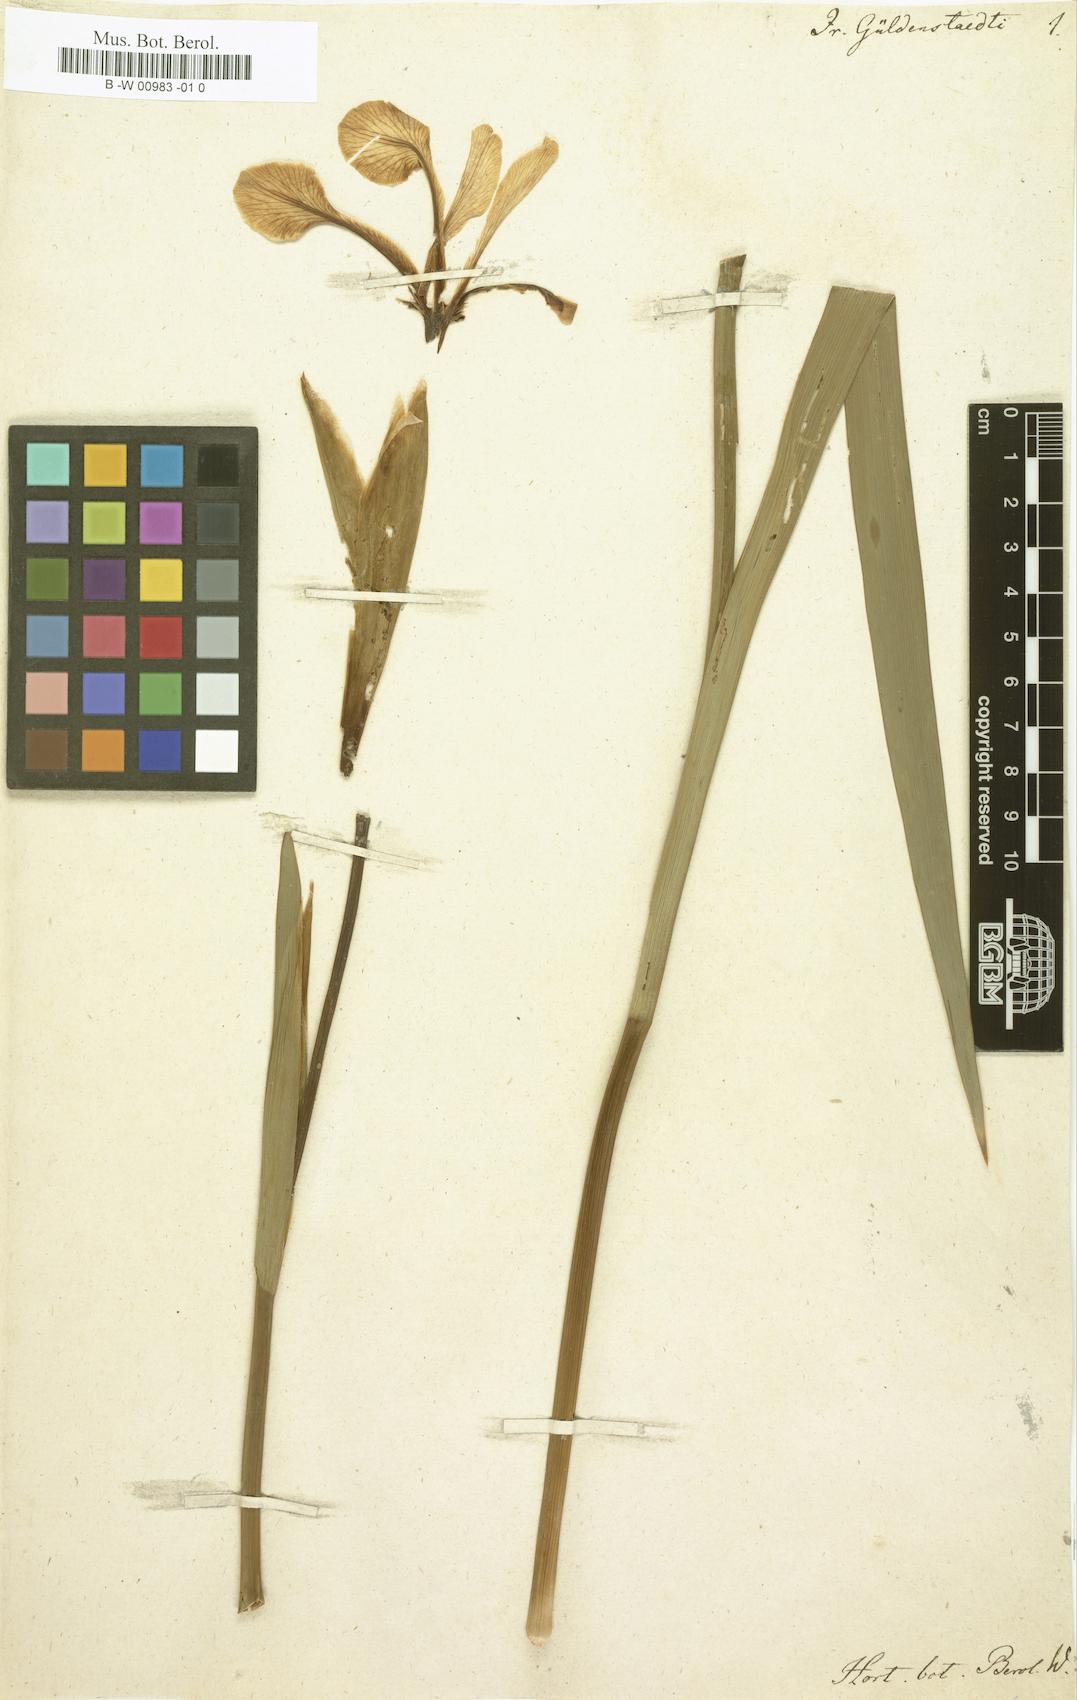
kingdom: Plantae
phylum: Tracheophyta
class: Liliopsida
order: Asparagales
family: Iridaceae
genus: Iris
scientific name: Iris
